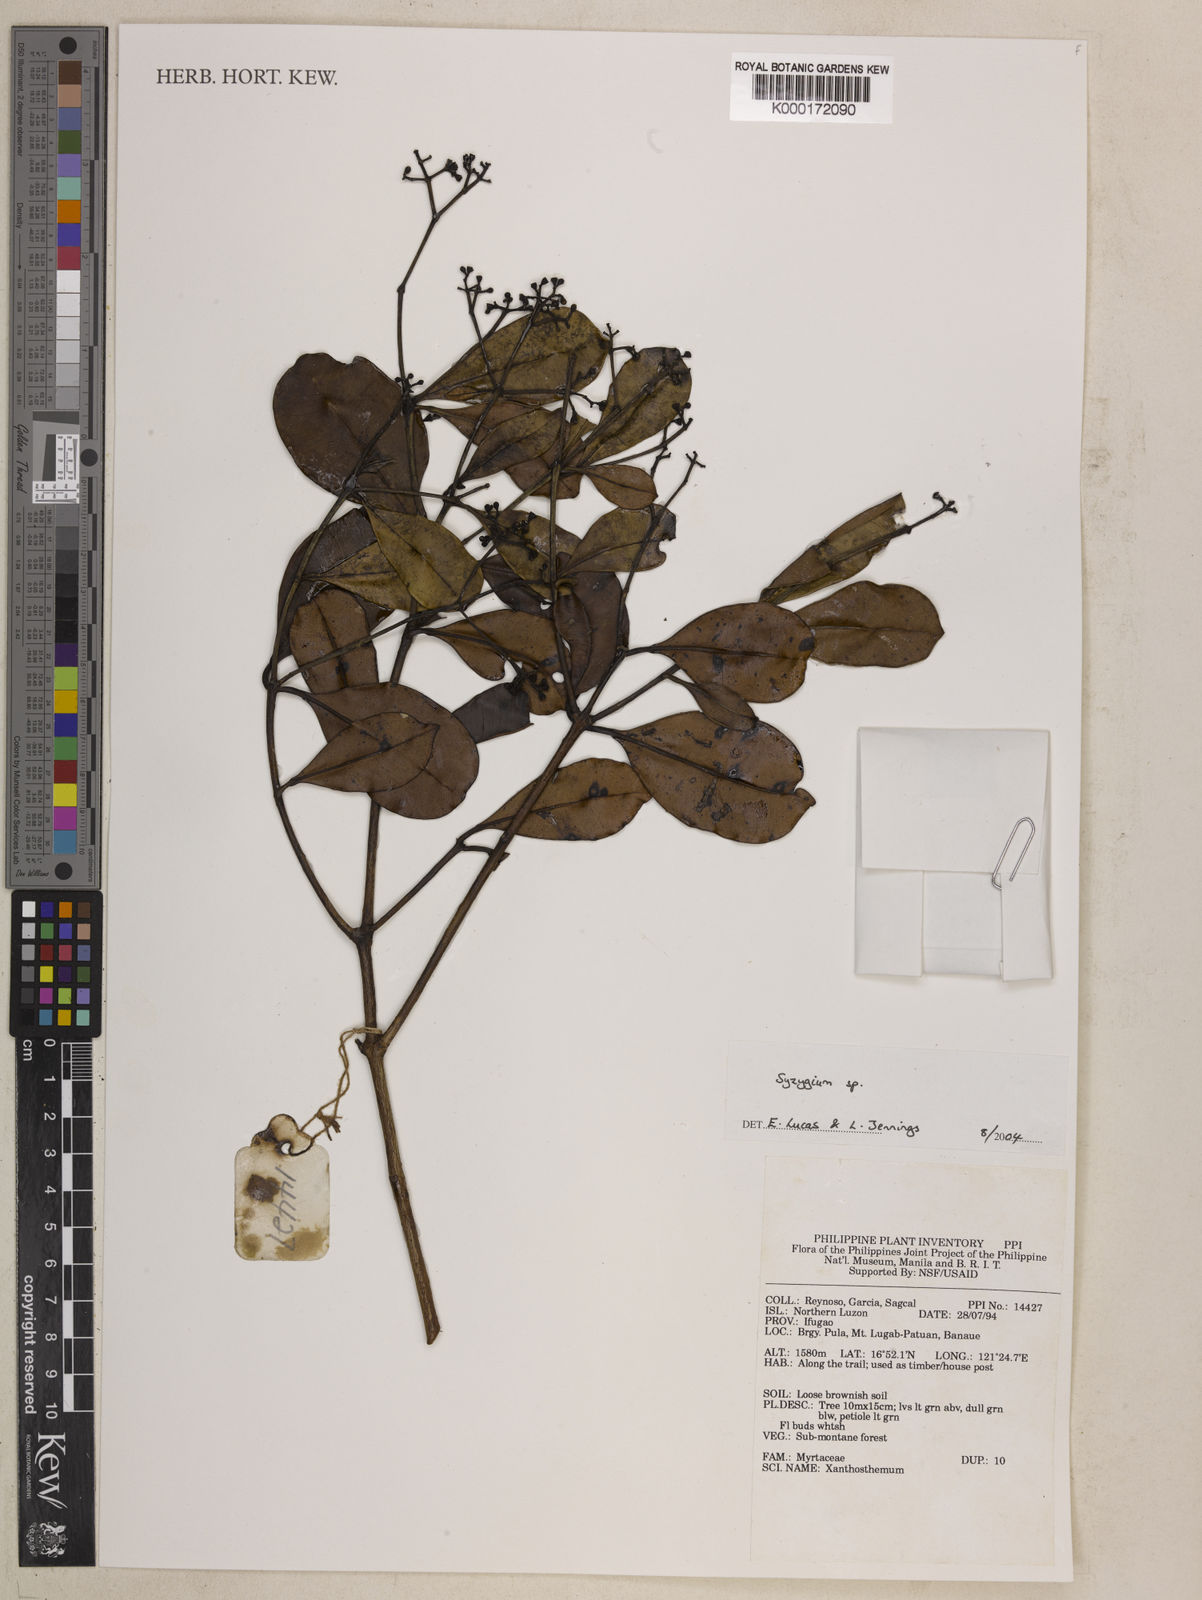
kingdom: Plantae
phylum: Tracheophyta
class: Magnoliopsida
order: Myrtales
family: Myrtaceae
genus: Syzygium
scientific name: Syzygium
